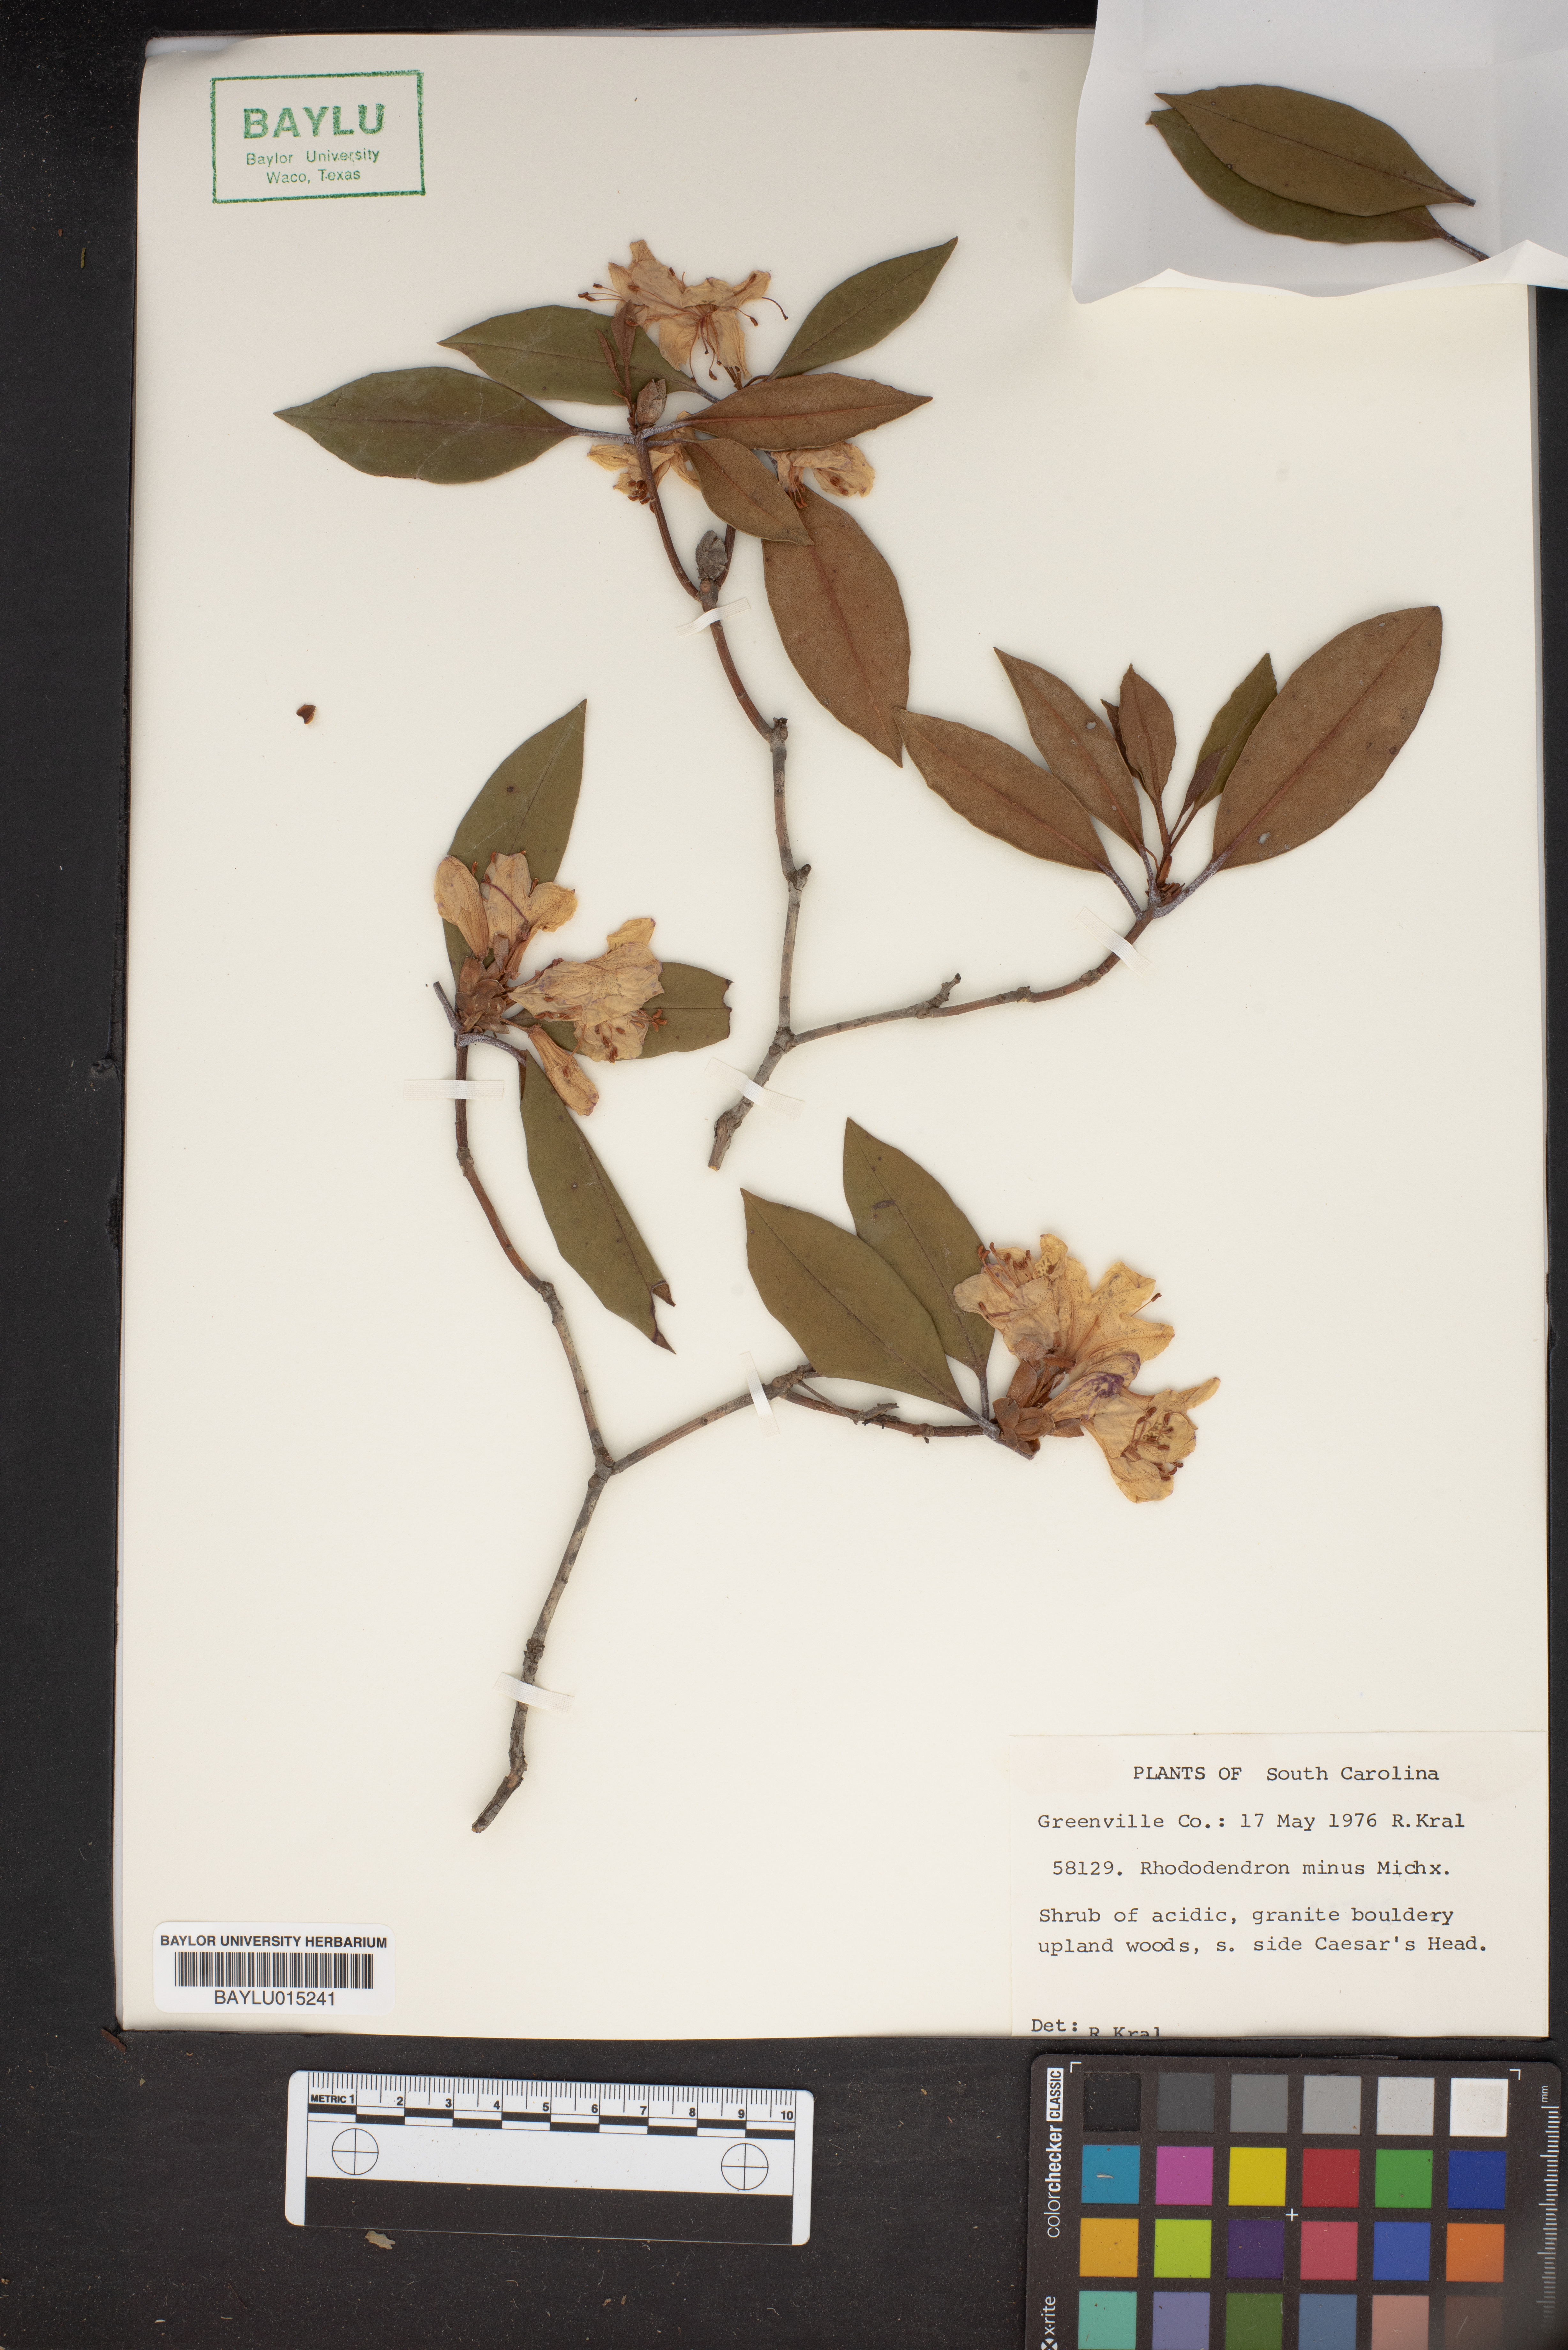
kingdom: Plantae
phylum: Tracheophyta
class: Magnoliopsida
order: Ericales
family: Ericaceae
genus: Rhododendron
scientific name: Rhododendron minus
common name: Piedmont rhododendron
